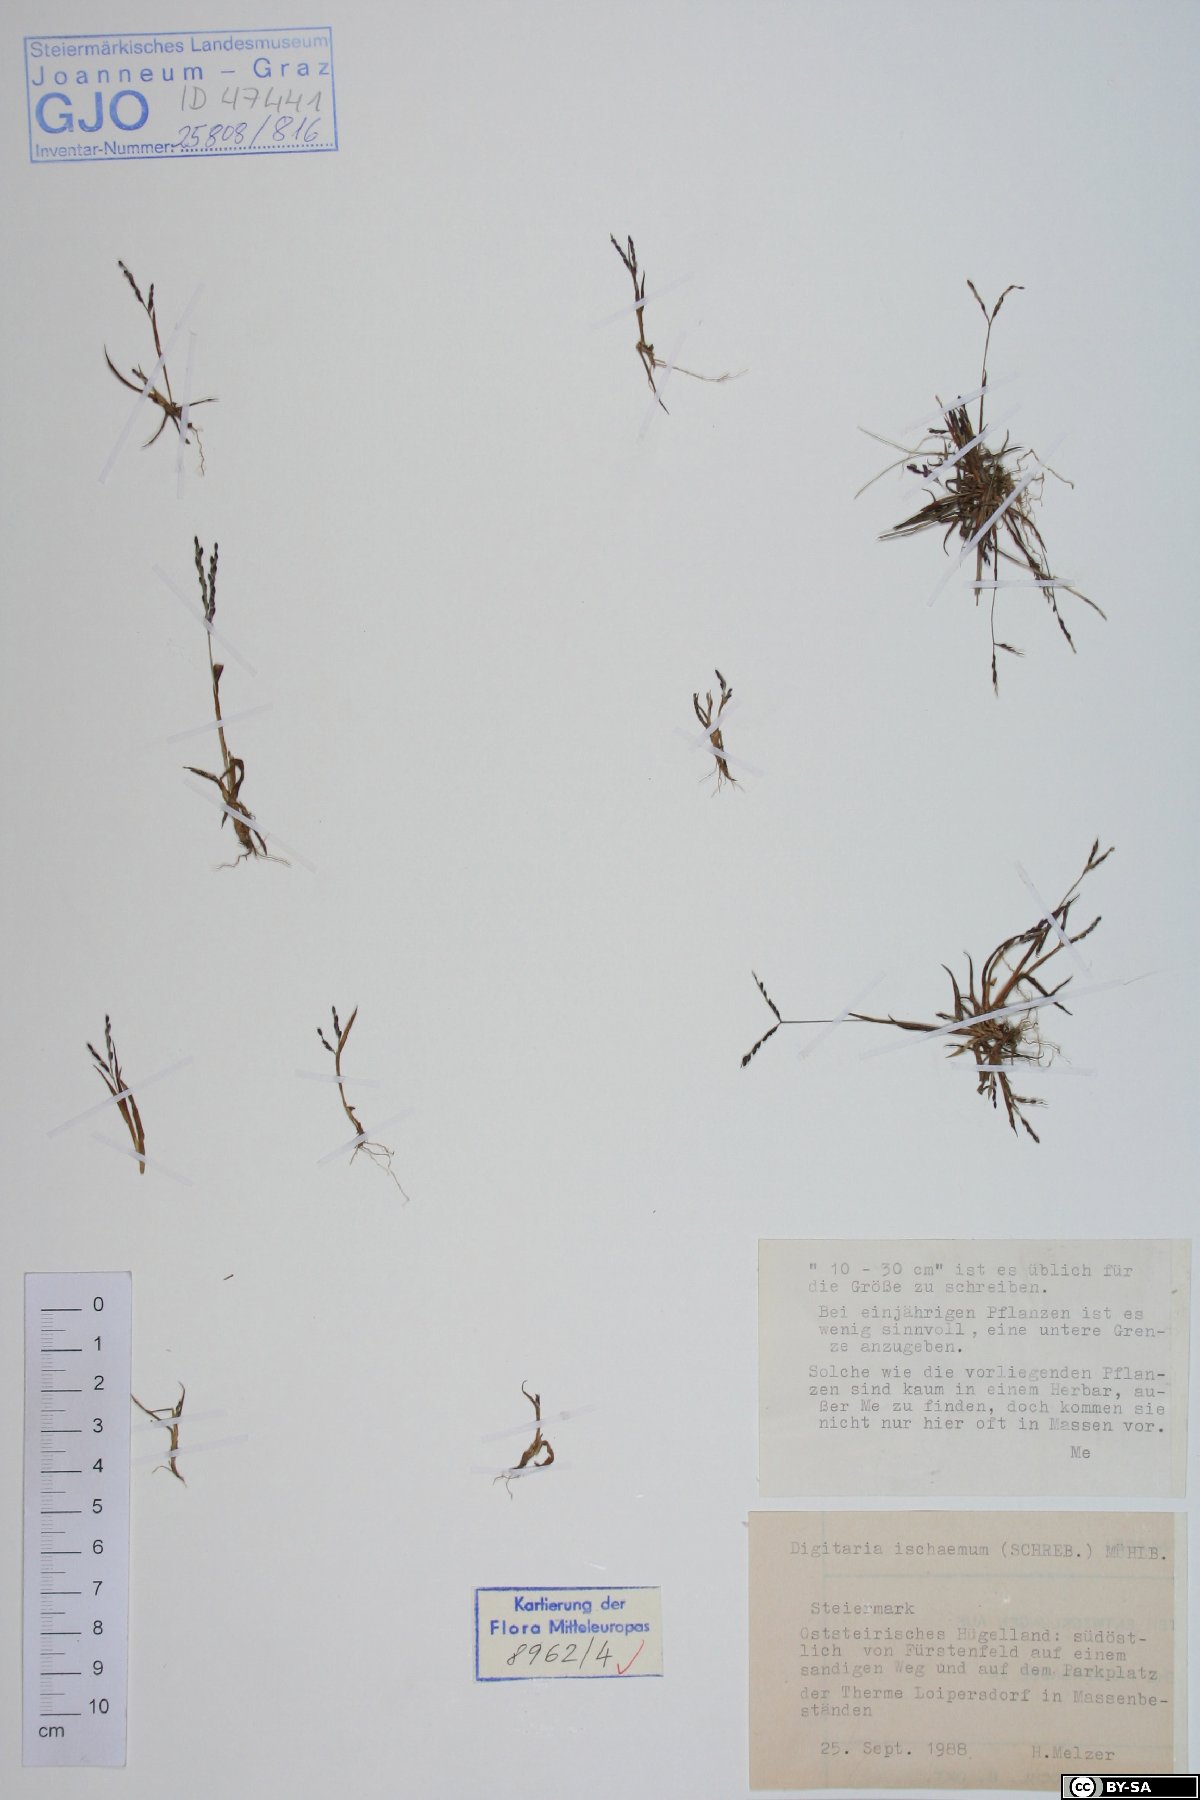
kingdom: Plantae
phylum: Tracheophyta
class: Liliopsida
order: Poales
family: Poaceae
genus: Digitaria
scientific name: Digitaria ischaemum
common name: Smooth crabgrass
